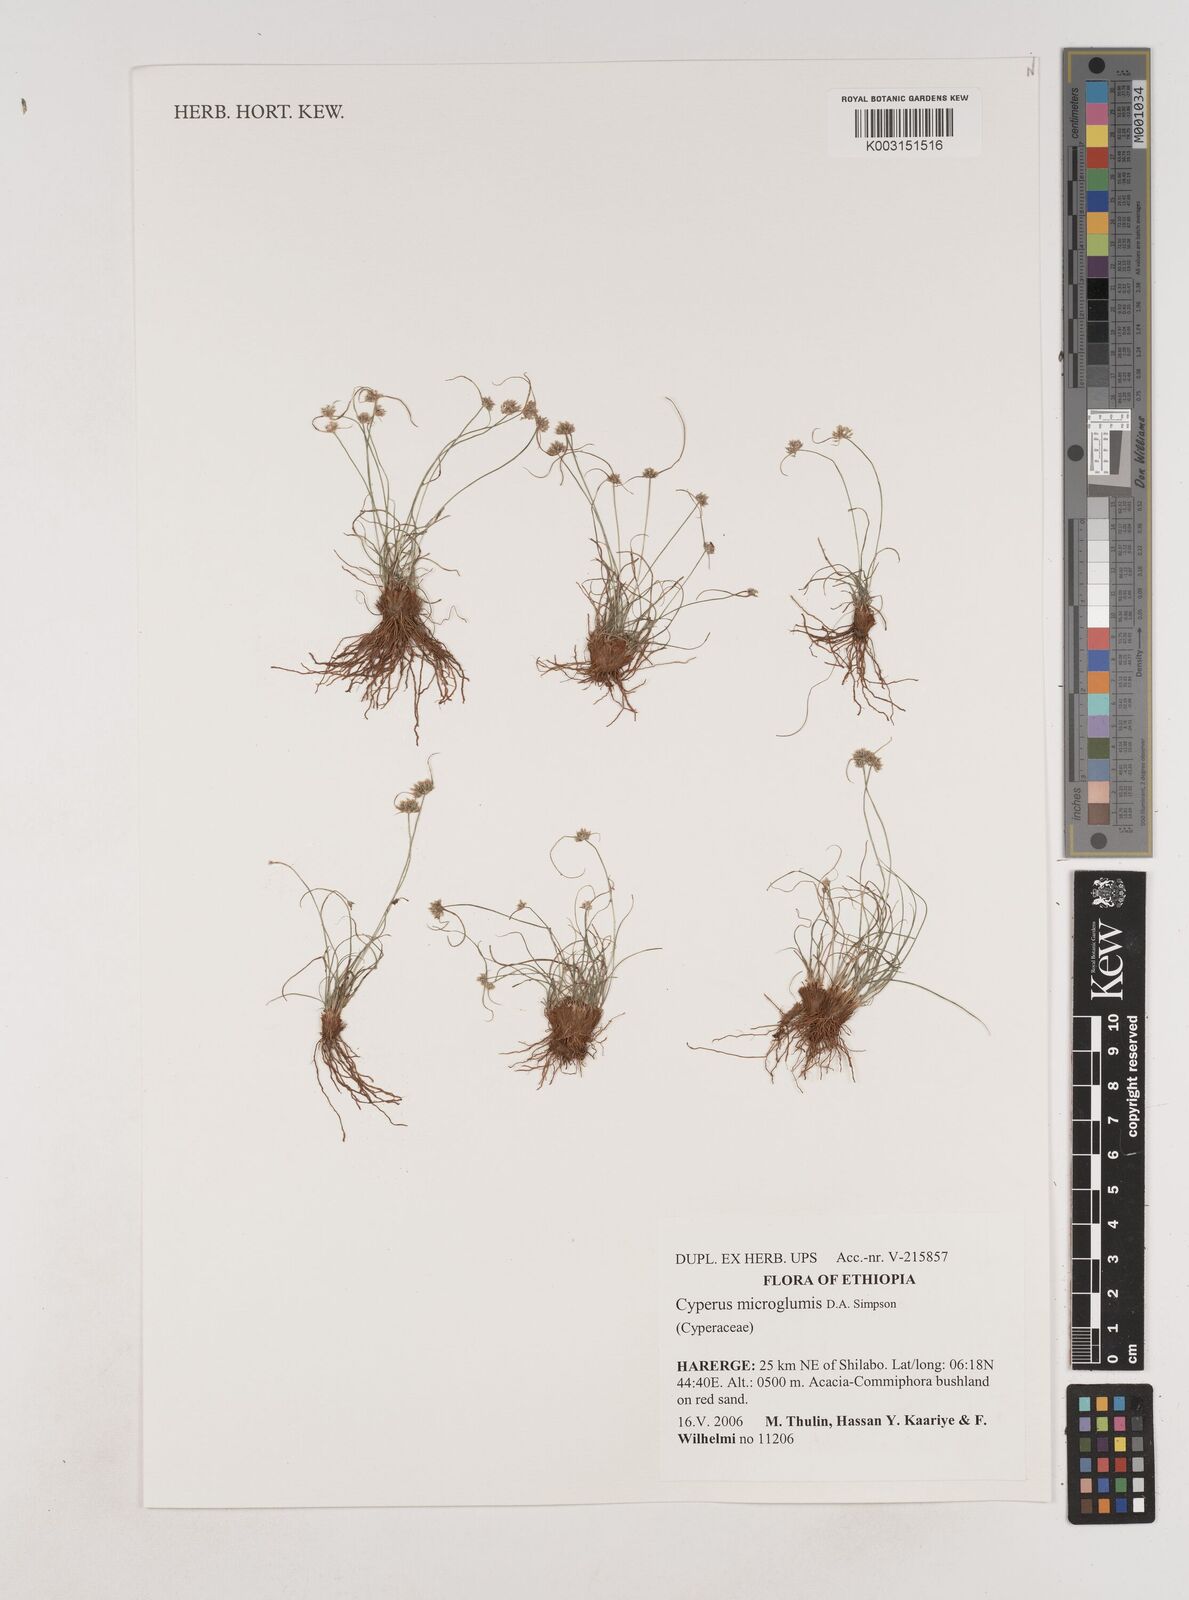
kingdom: Plantae
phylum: Tracheophyta
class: Liliopsida
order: Poales
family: Cyperaceae
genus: Cyperus
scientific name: Cyperus microglumis
